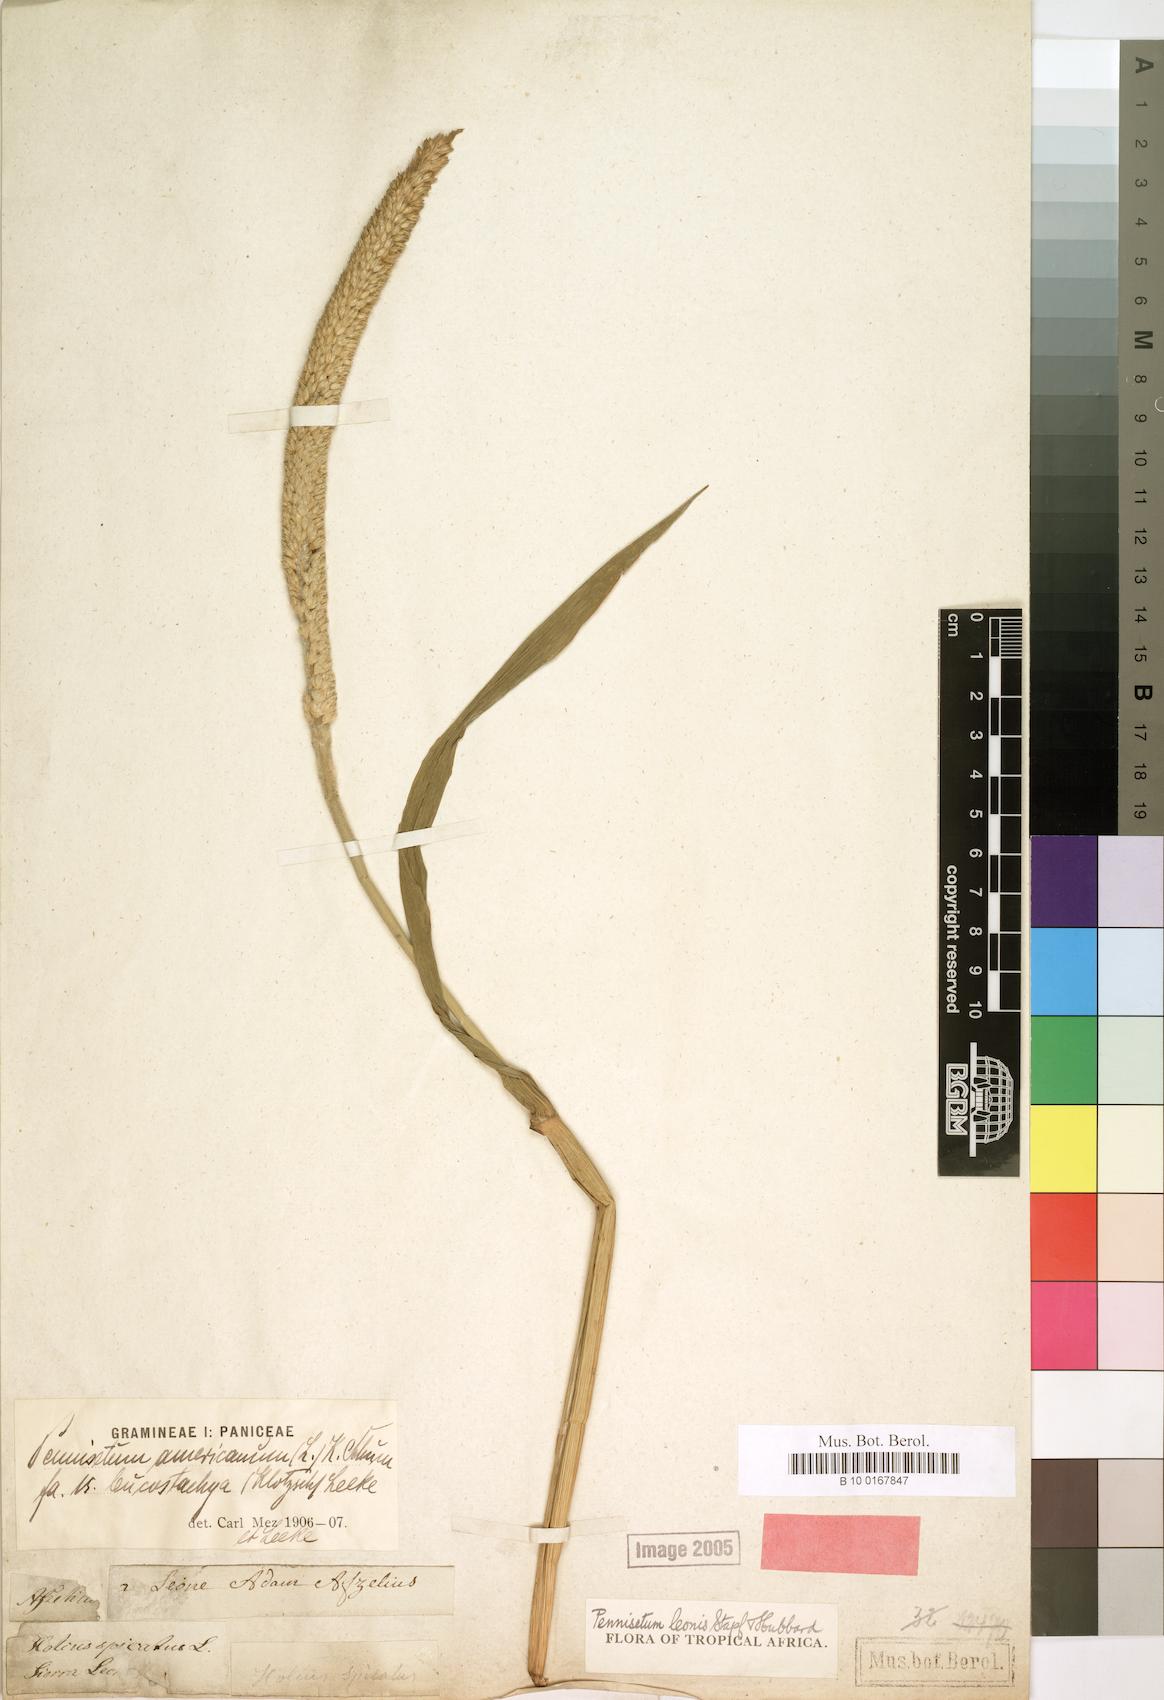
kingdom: Plantae
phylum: Tracheophyta
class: Liliopsida
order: Poales
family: Poaceae
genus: Cenchrus
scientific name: Cenchrus americanus
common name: Pearl millet
